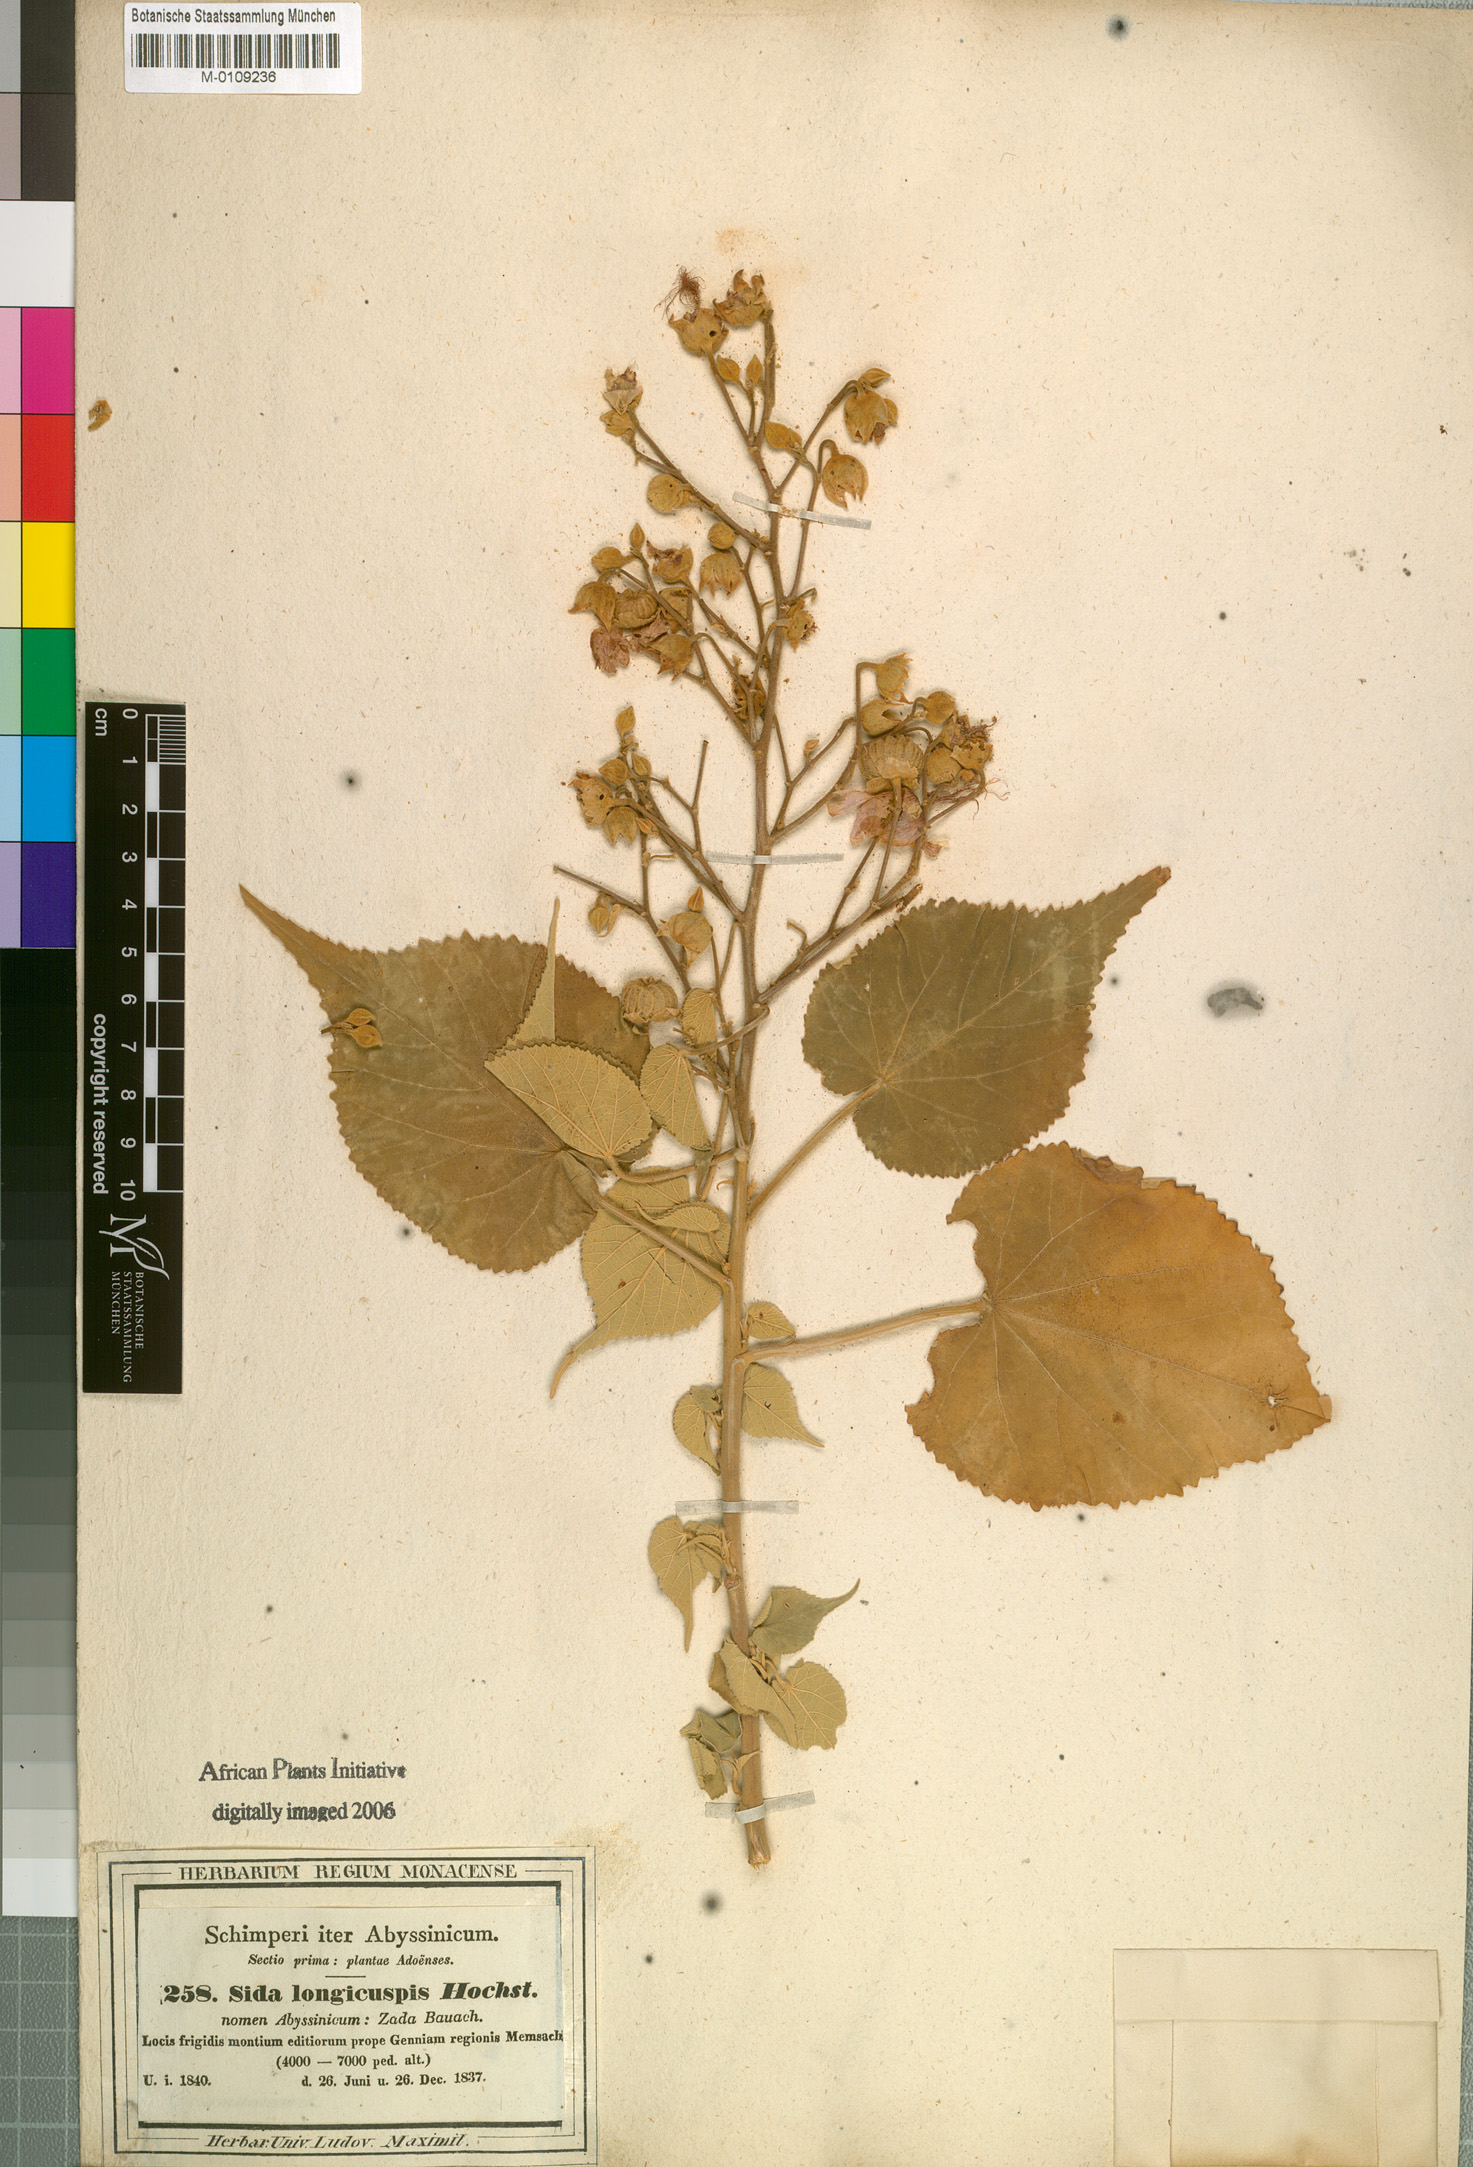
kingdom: Plantae
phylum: Tracheophyta
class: Magnoliopsida
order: Malvales
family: Malvaceae
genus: Abutilon
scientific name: Abutilon longicuspe
